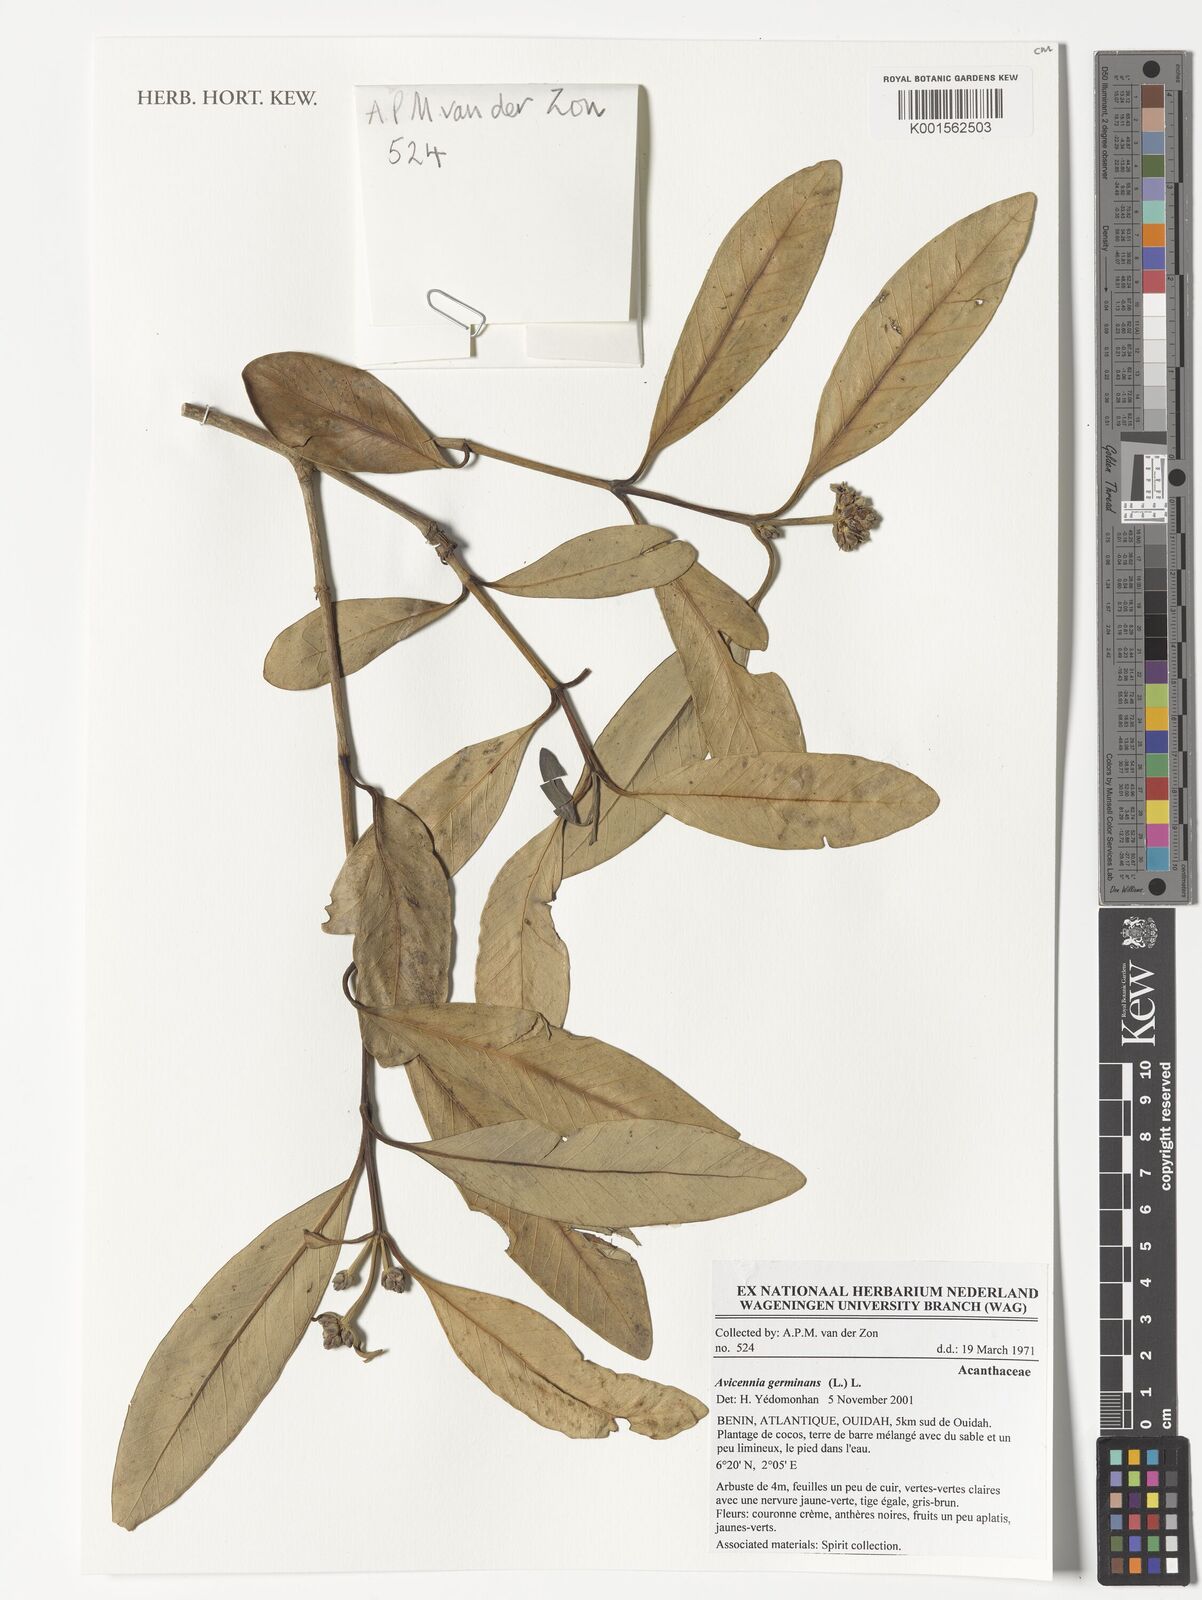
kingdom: Plantae
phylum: Tracheophyta
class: Magnoliopsida
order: Lamiales
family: Acanthaceae
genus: Avicennia
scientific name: Avicennia germinans
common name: Black mangrove
